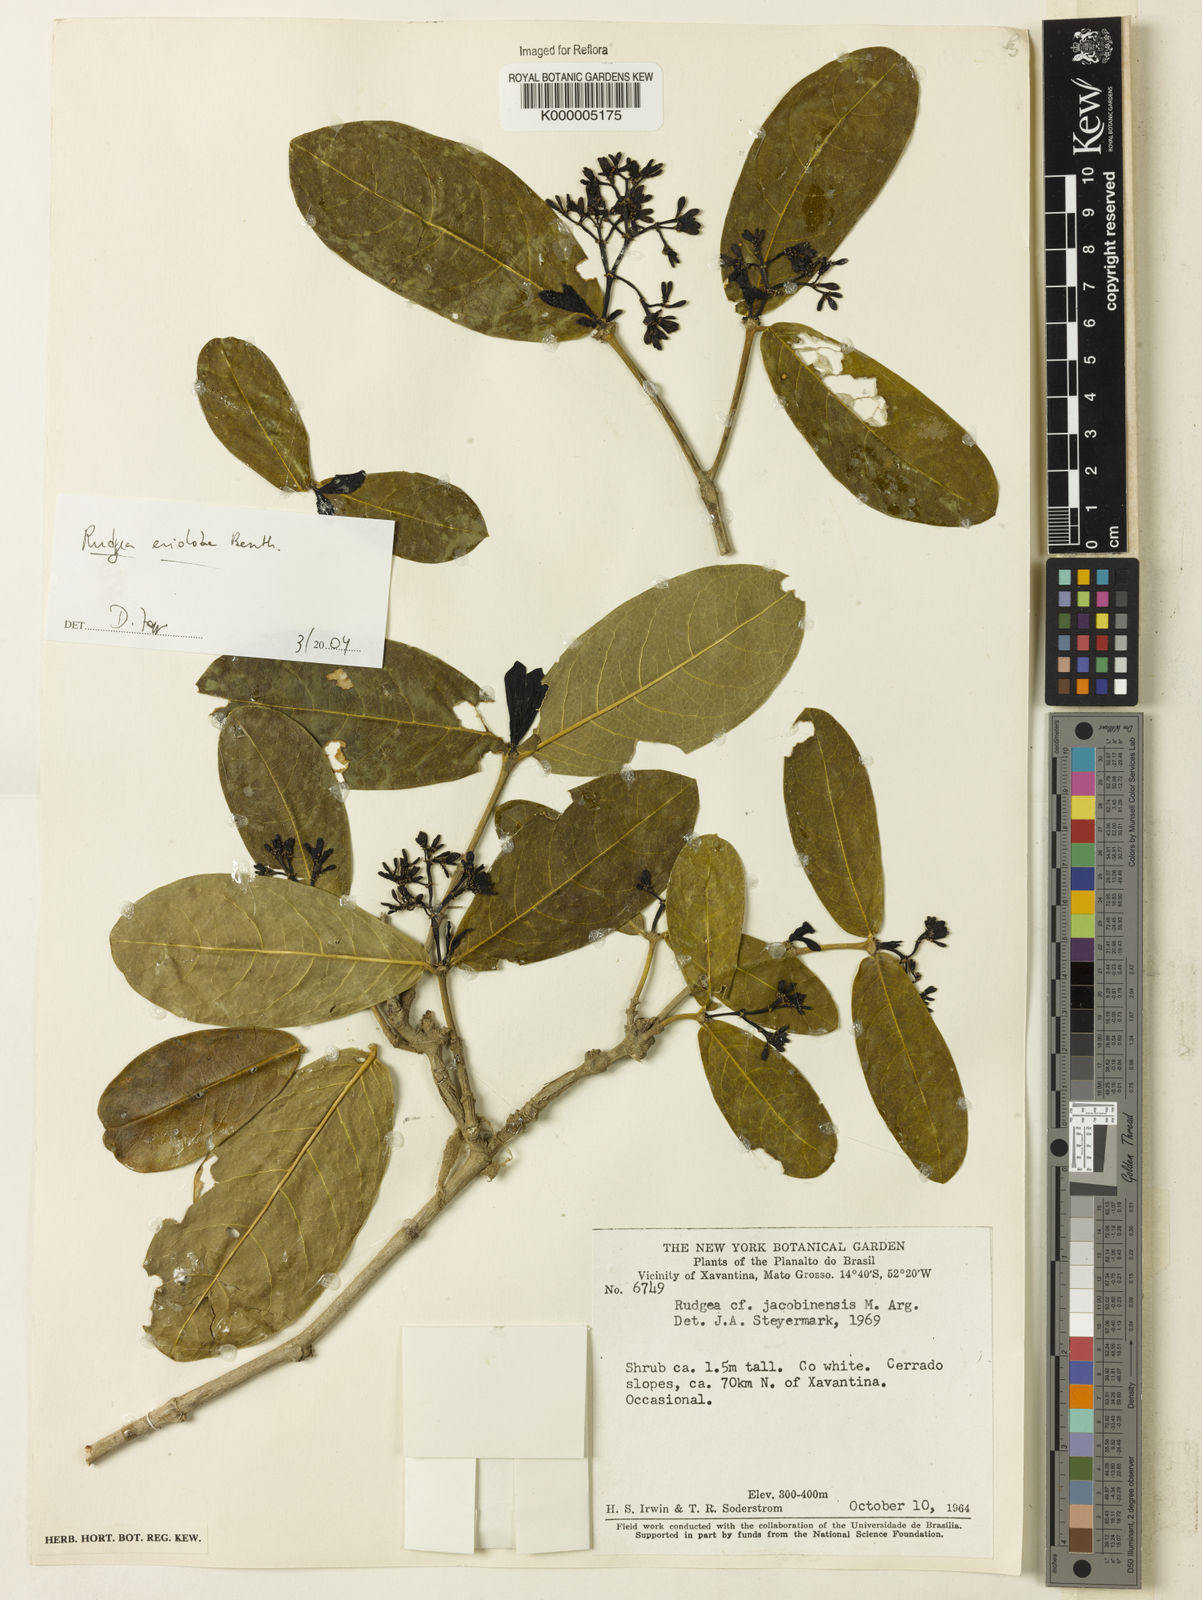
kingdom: Plantae
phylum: Tracheophyta
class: Magnoliopsida
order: Gentianales
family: Rubiaceae
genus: Rudgea
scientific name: Rudgea erioloba
